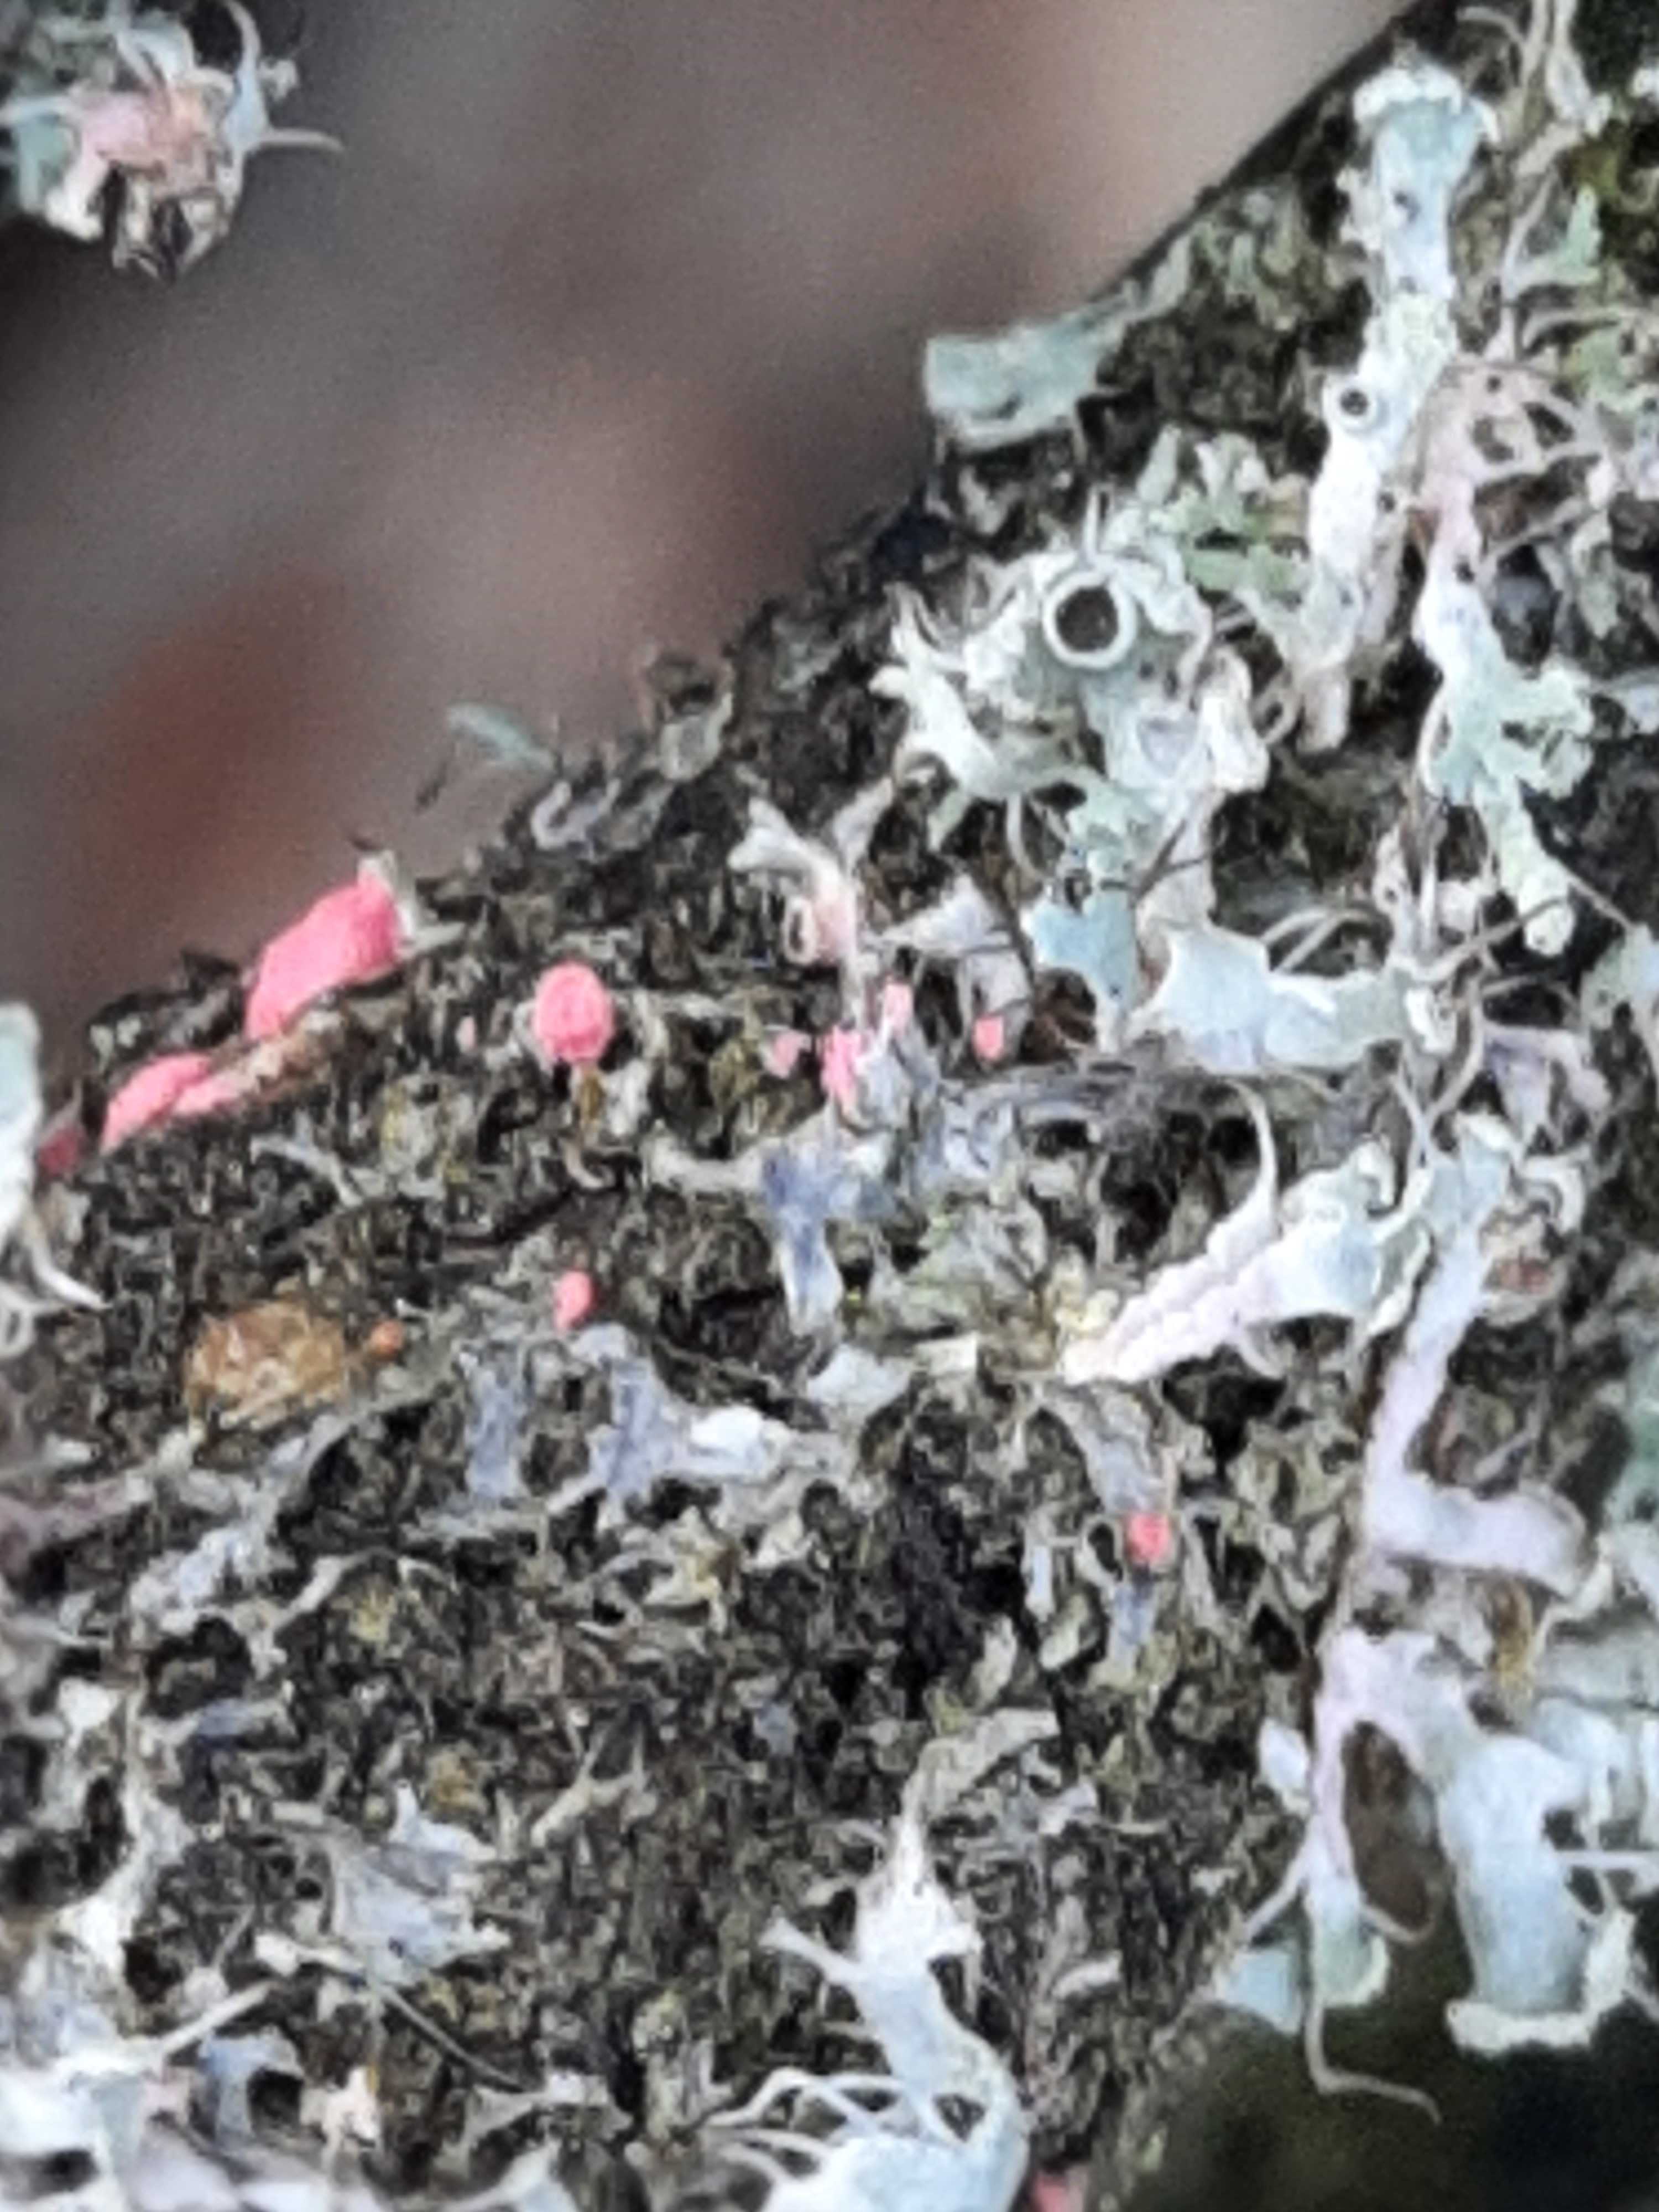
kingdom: Fungi
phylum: Ascomycota
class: Sordariomycetes
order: Hypocreales
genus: Illosporiopsis
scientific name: Illosporiopsis christiansenii
